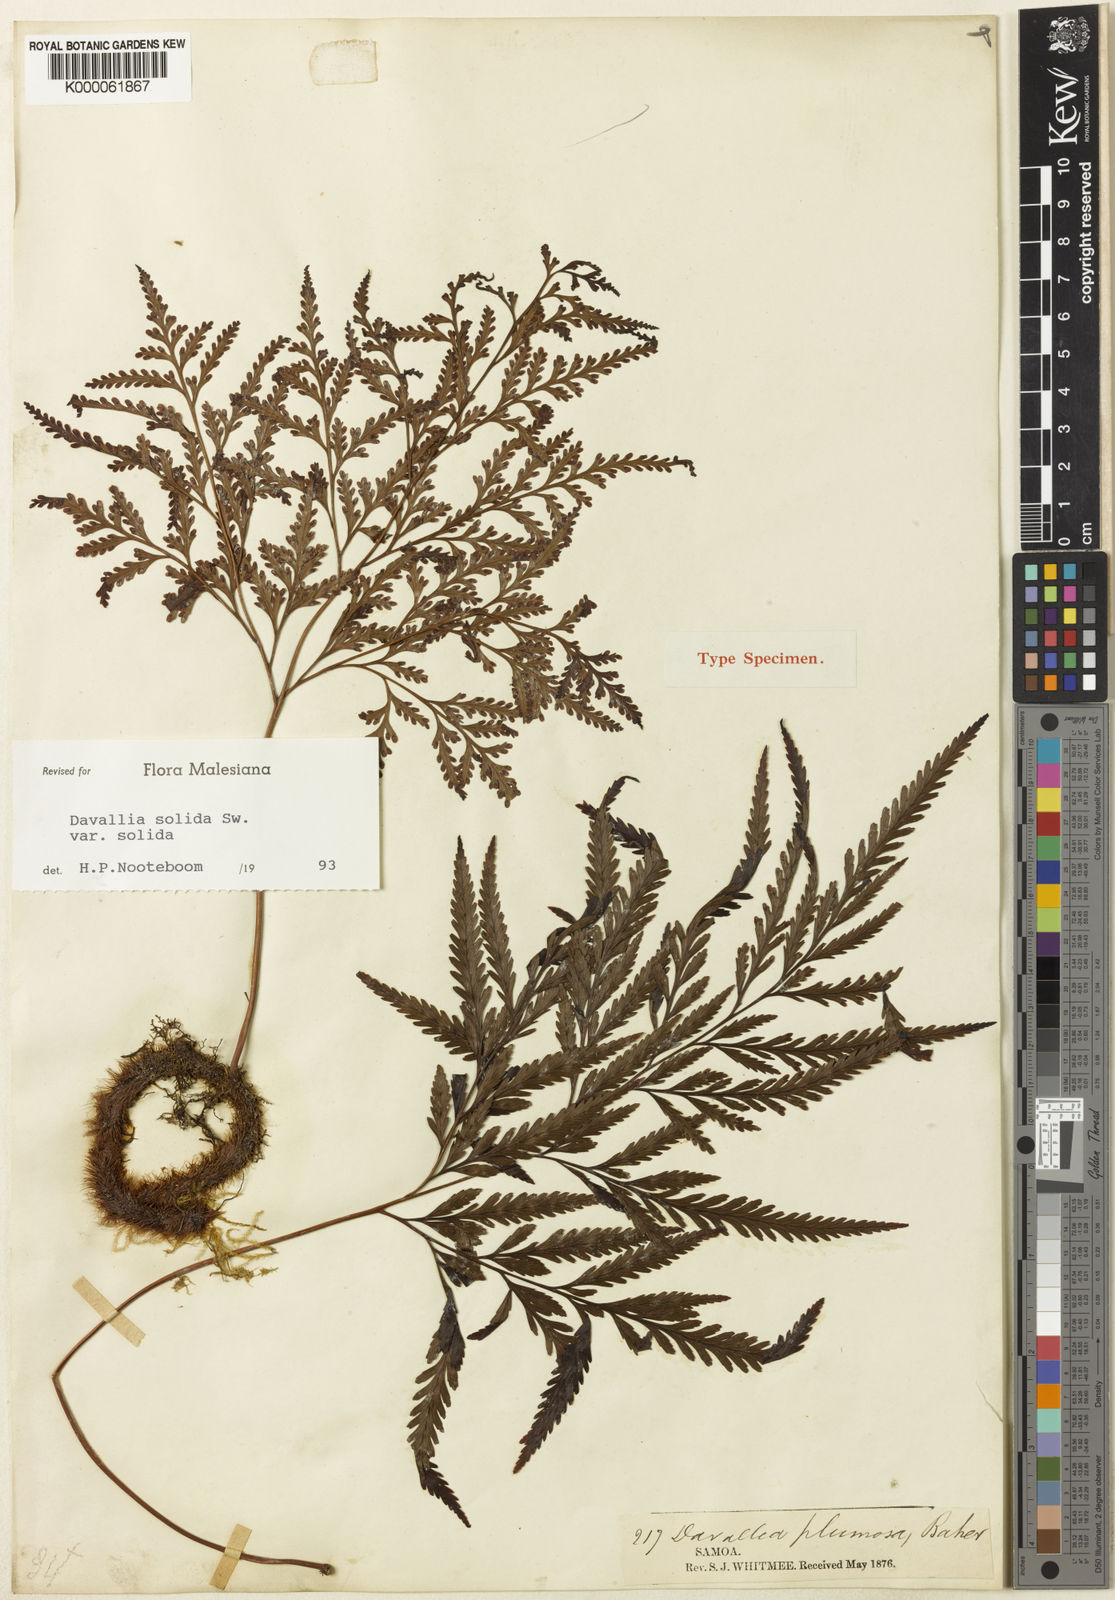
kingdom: Plantae
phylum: Tracheophyta
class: Polypodiopsida
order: Polypodiales
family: Davalliaceae
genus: Davallia
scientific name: Davallia solida
